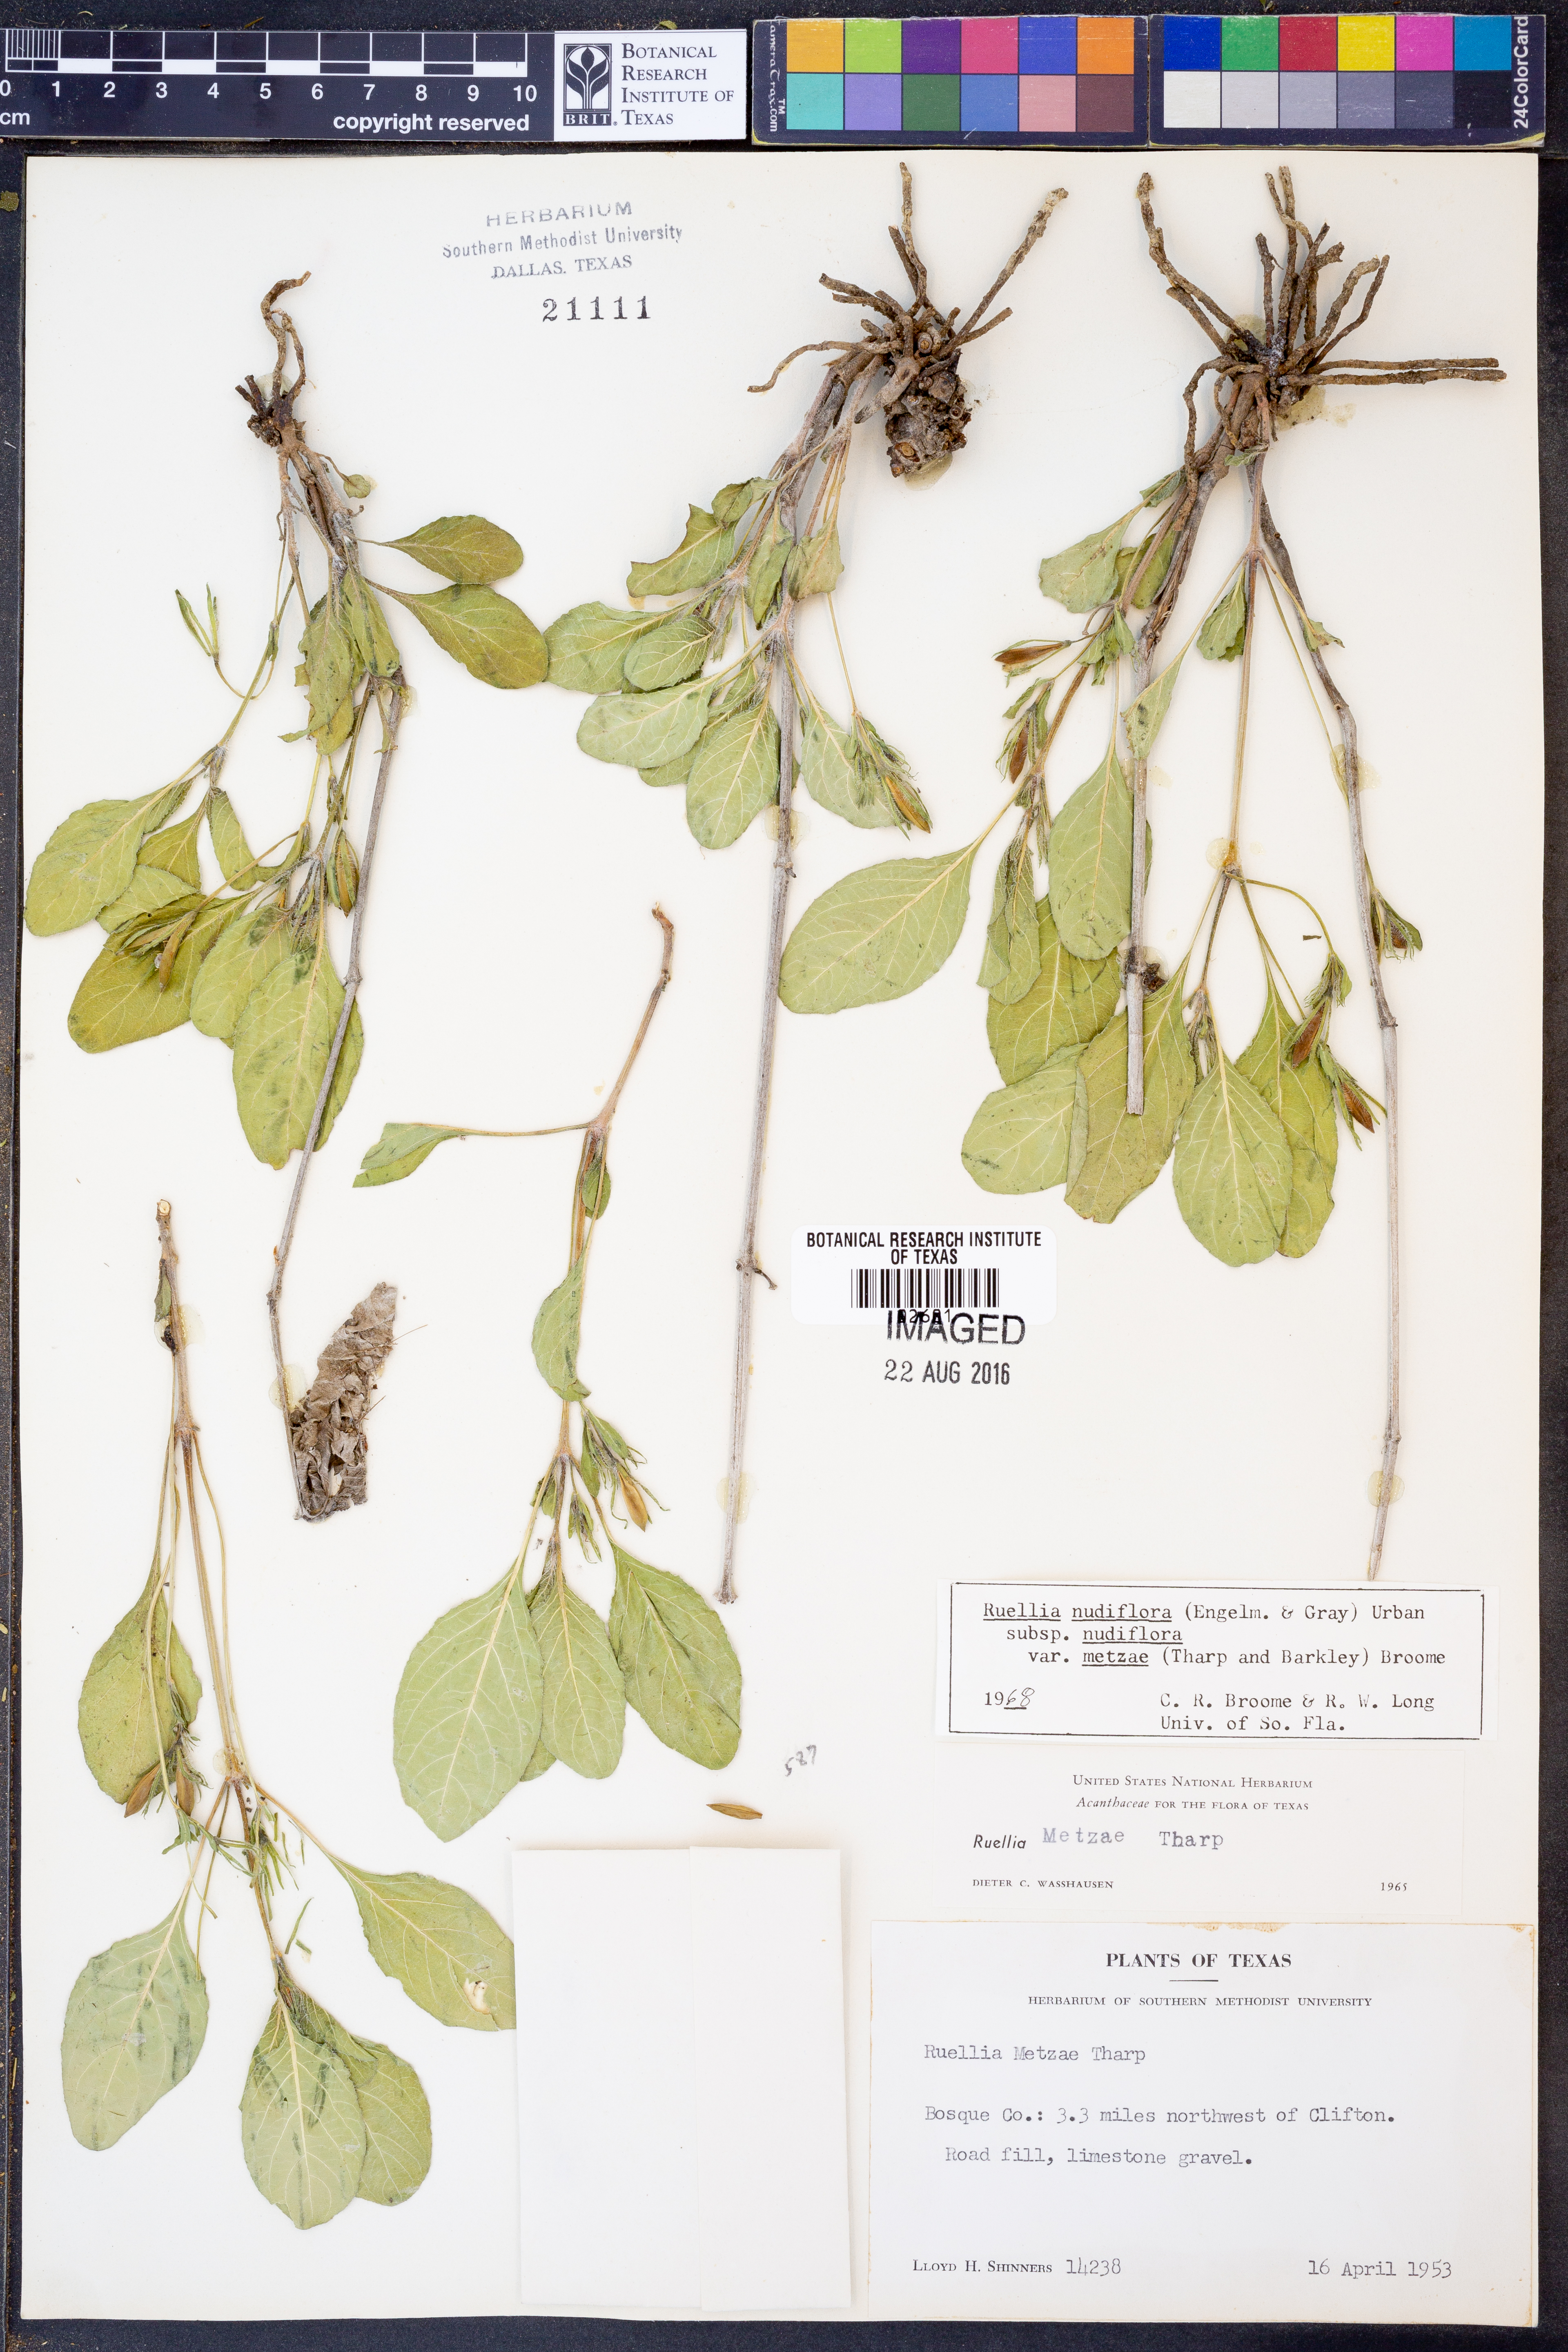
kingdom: Plantae
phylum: Tracheophyta
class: Magnoliopsida
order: Lamiales
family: Acanthaceae
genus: Ruellia
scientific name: Ruellia ciliatiflora
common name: Hairyflower wild petunia
